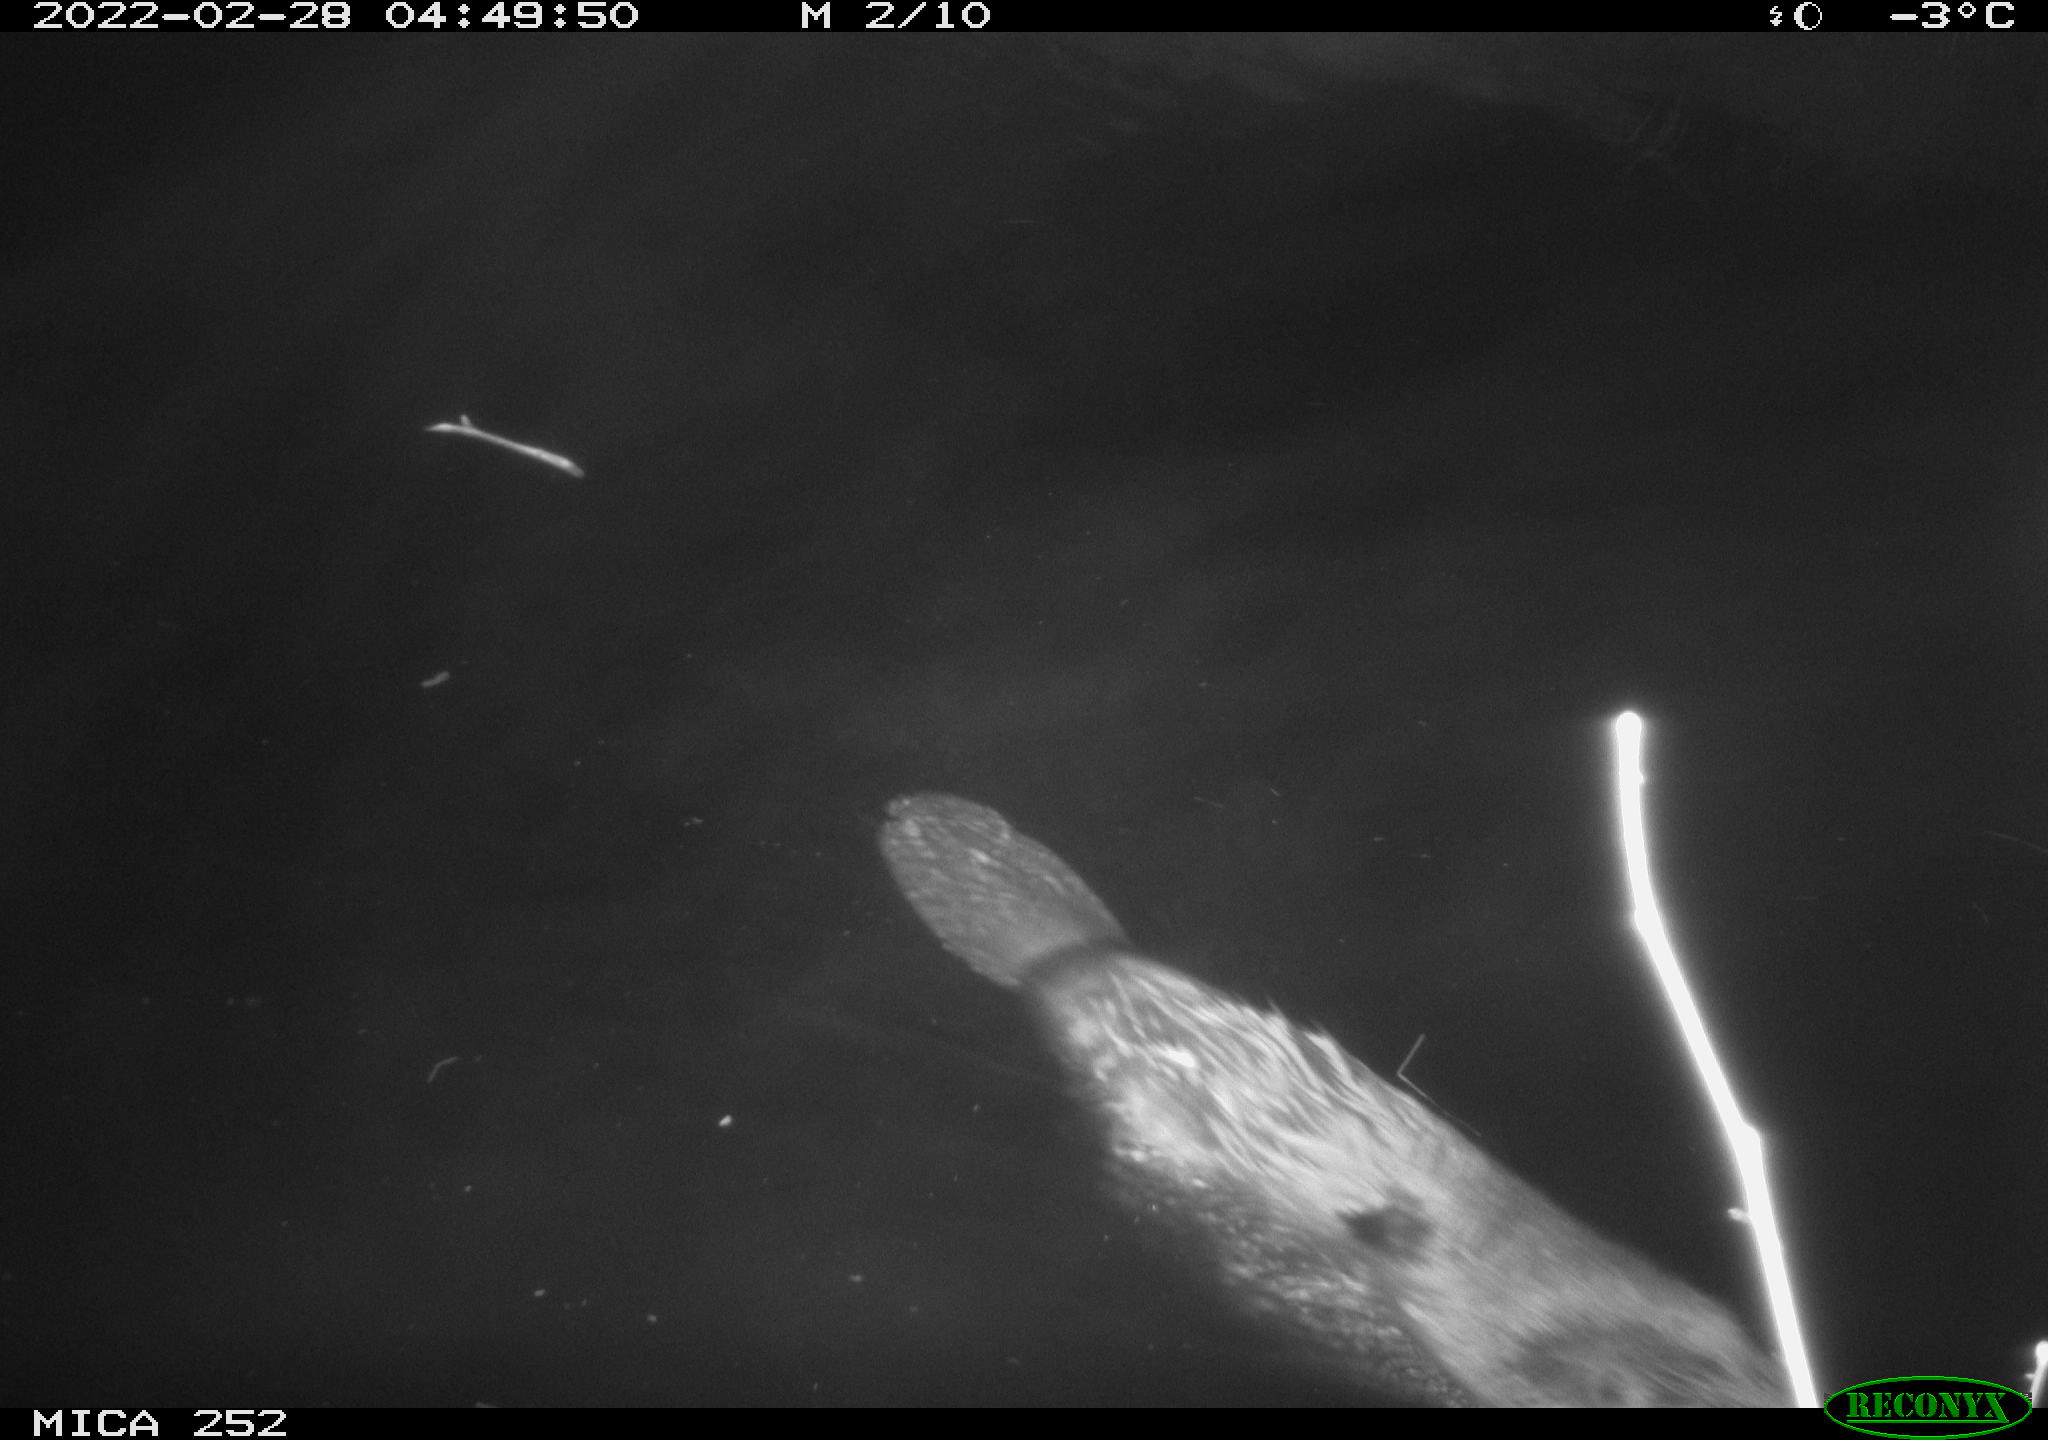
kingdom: Animalia
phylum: Chordata
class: Mammalia
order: Rodentia
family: Castoridae
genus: Castor
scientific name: Castor fiber
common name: Eurasian beaver
